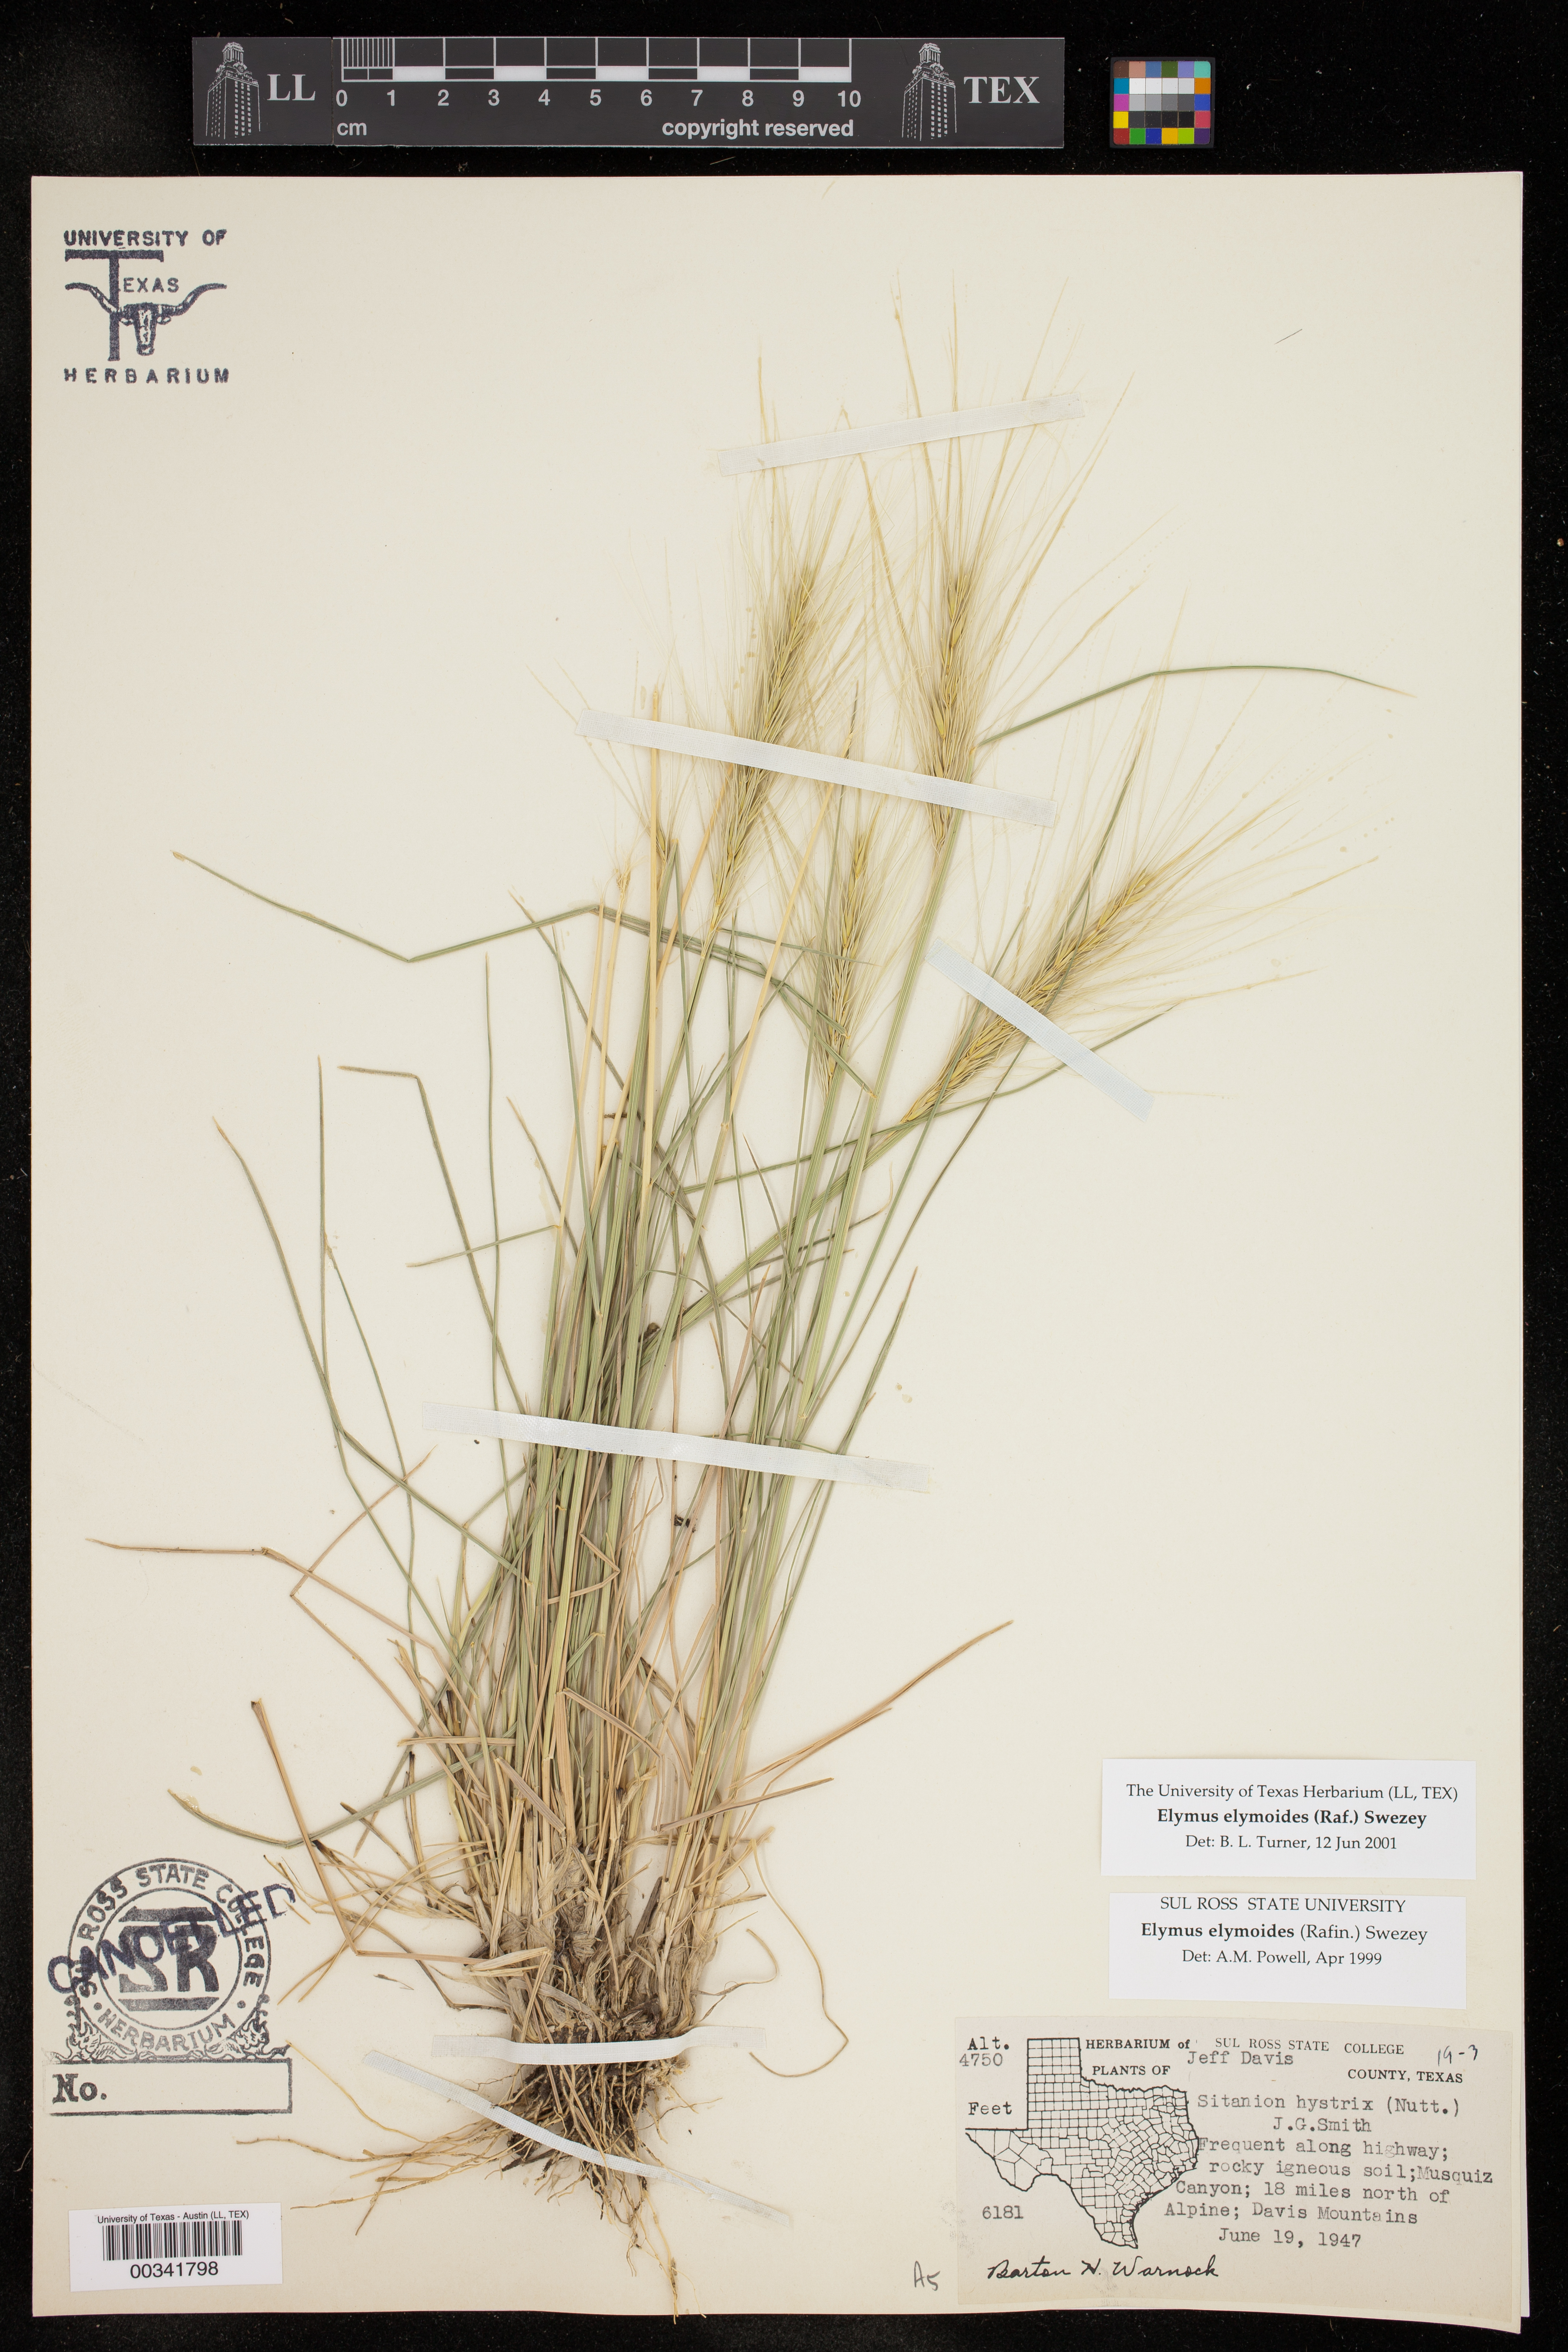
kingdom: Plantae
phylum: Tracheophyta
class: Liliopsida
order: Poales
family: Poaceae
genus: Elymus
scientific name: Elymus elymoides
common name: Bottlebrush squirreltail
